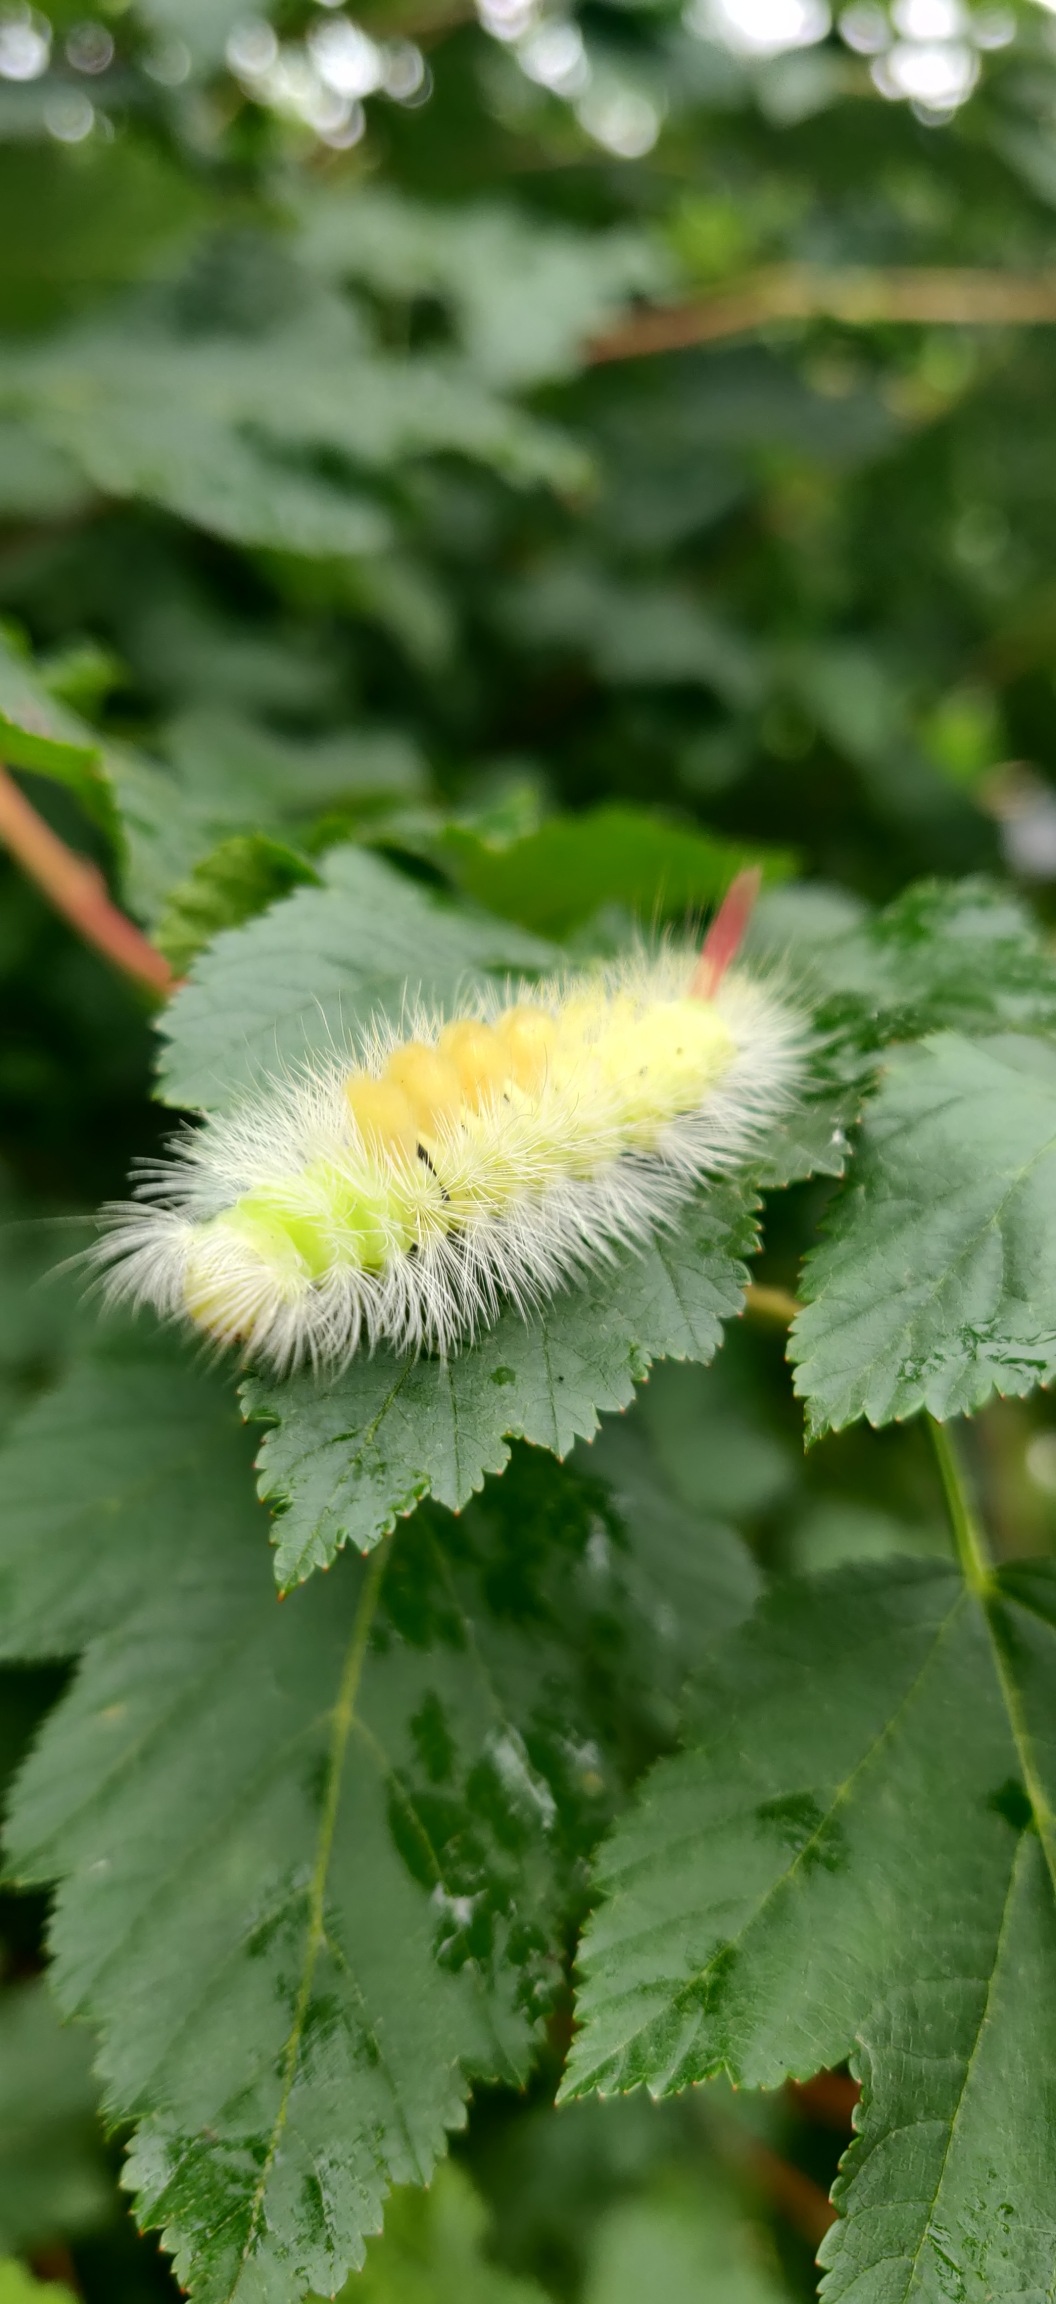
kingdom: Animalia
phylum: Arthropoda
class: Insecta
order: Lepidoptera
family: Erebidae
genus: Calliteara
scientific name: Calliteara pudibunda
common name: Bøgenonne
